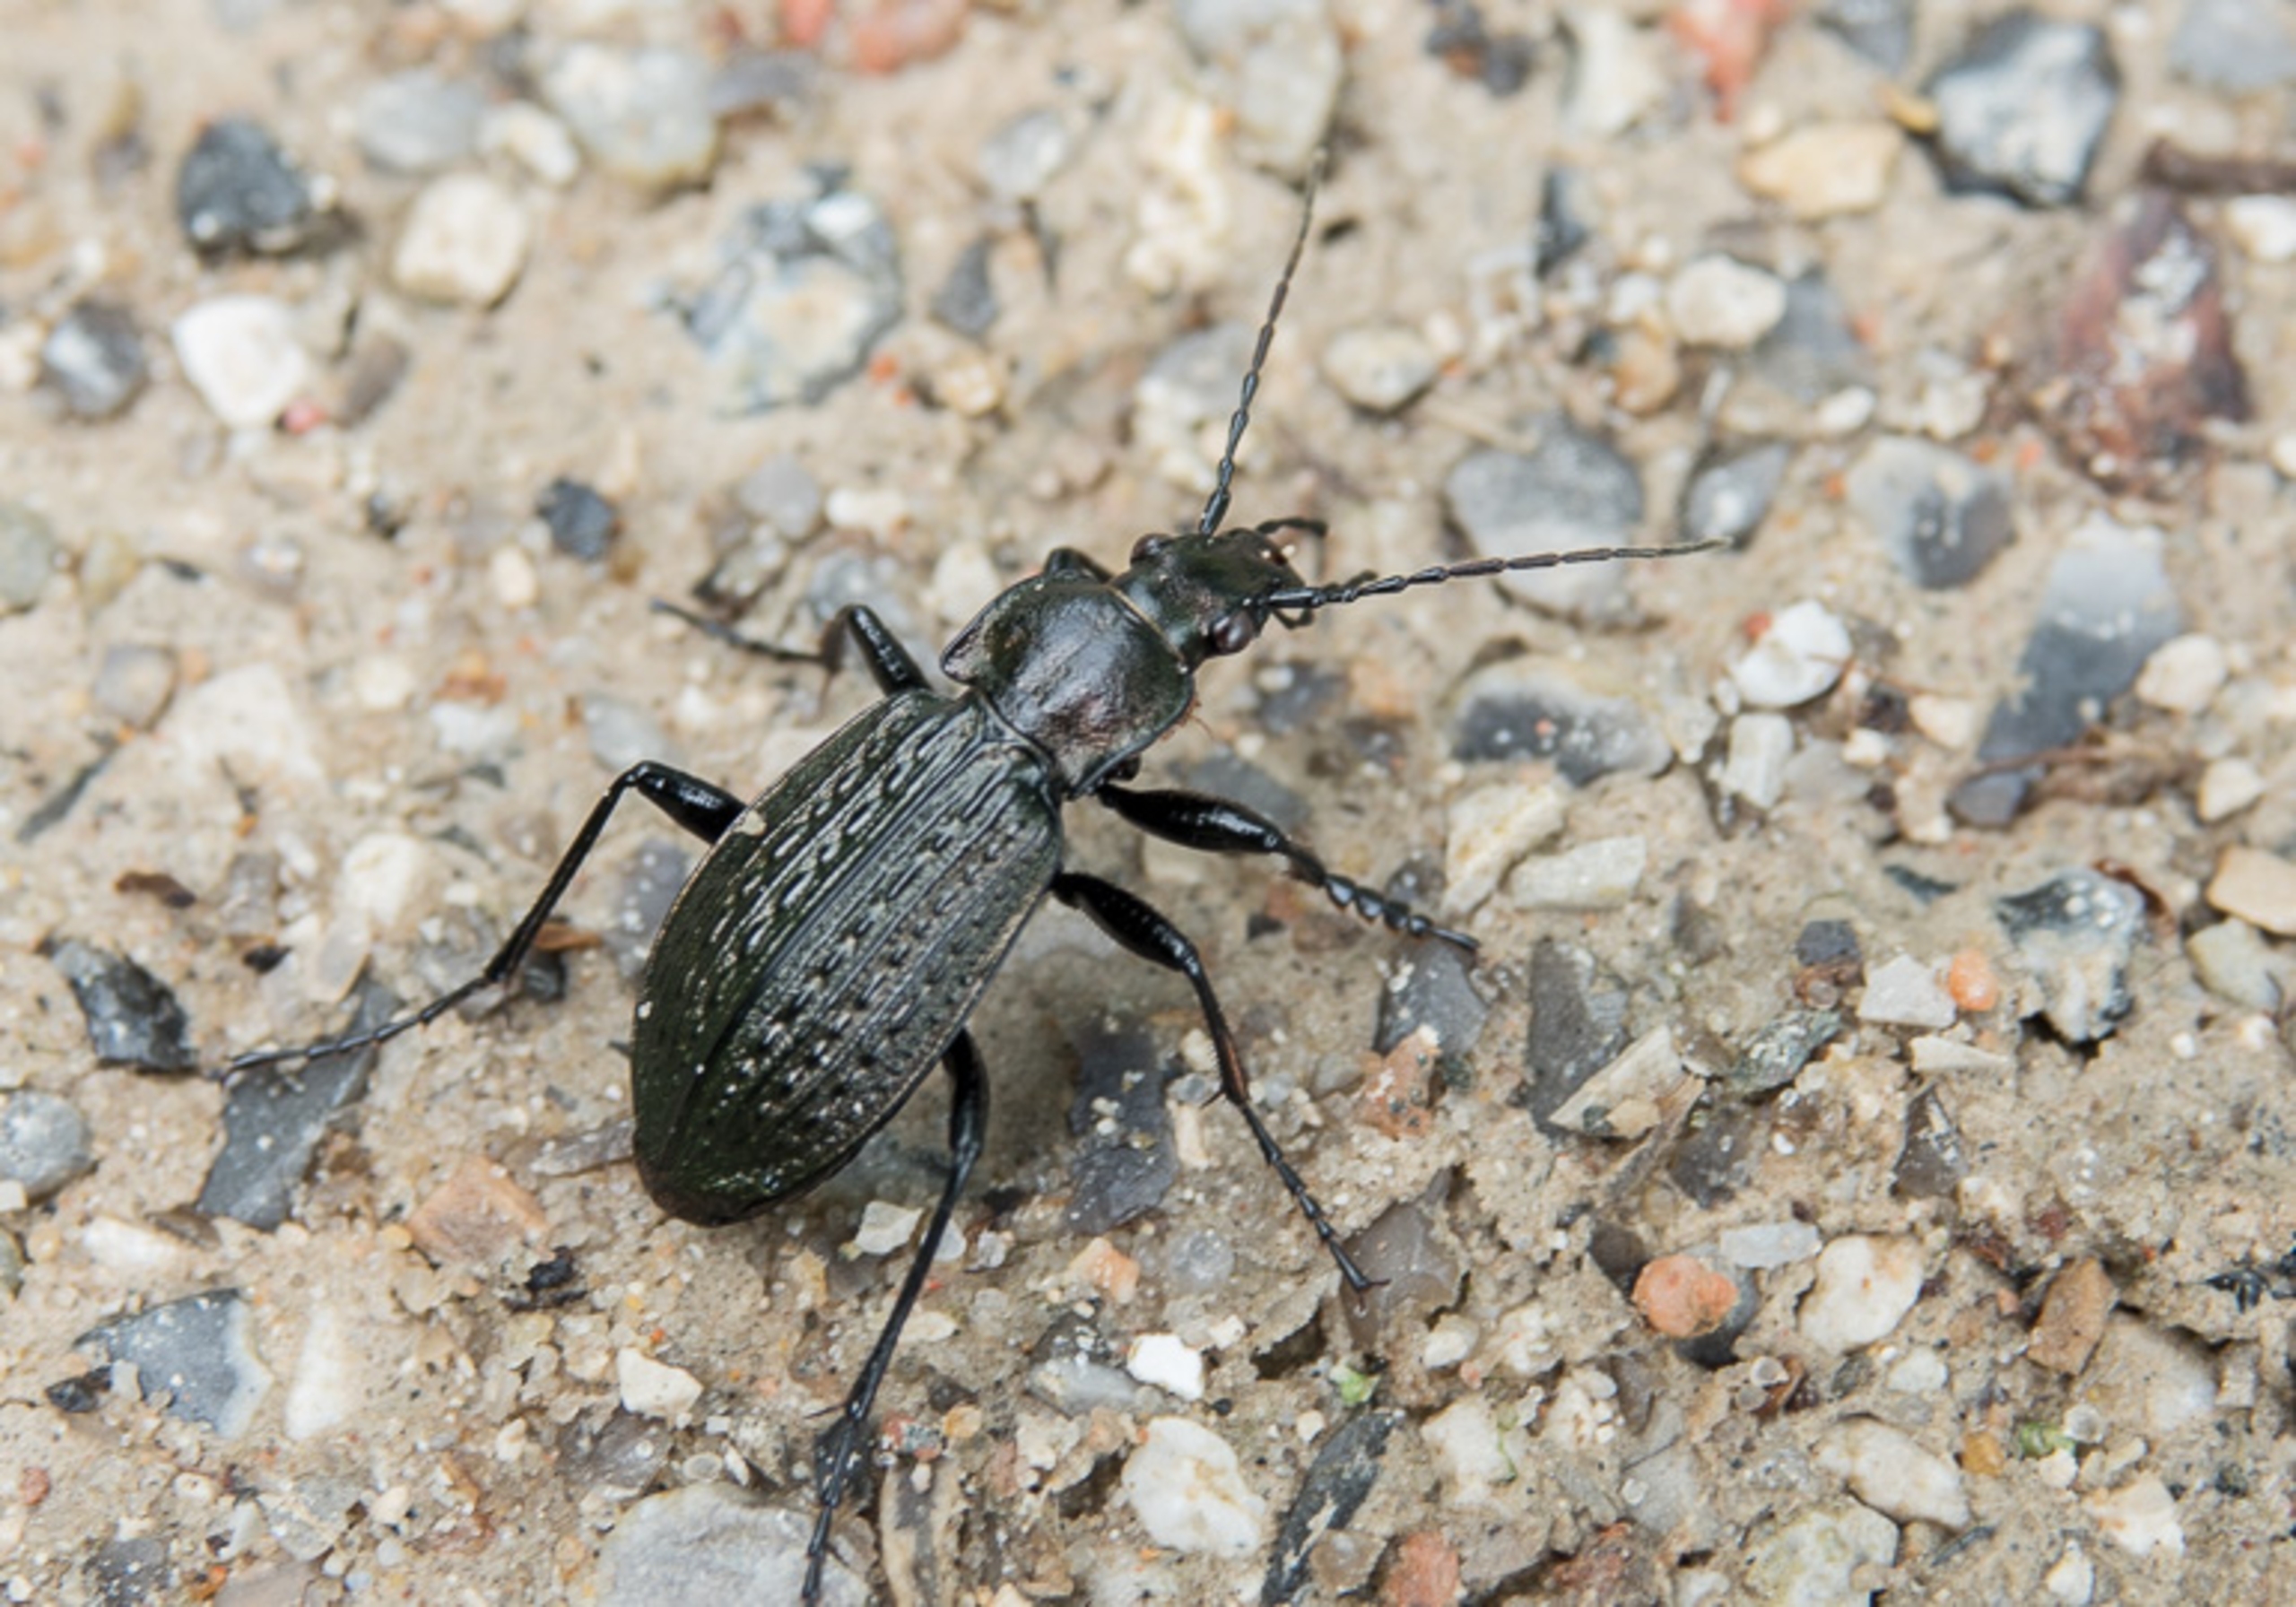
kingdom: Animalia
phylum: Arthropoda
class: Insecta
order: Coleoptera
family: Carabidae
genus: Carabus
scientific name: Carabus granulatus
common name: Kornet løber
